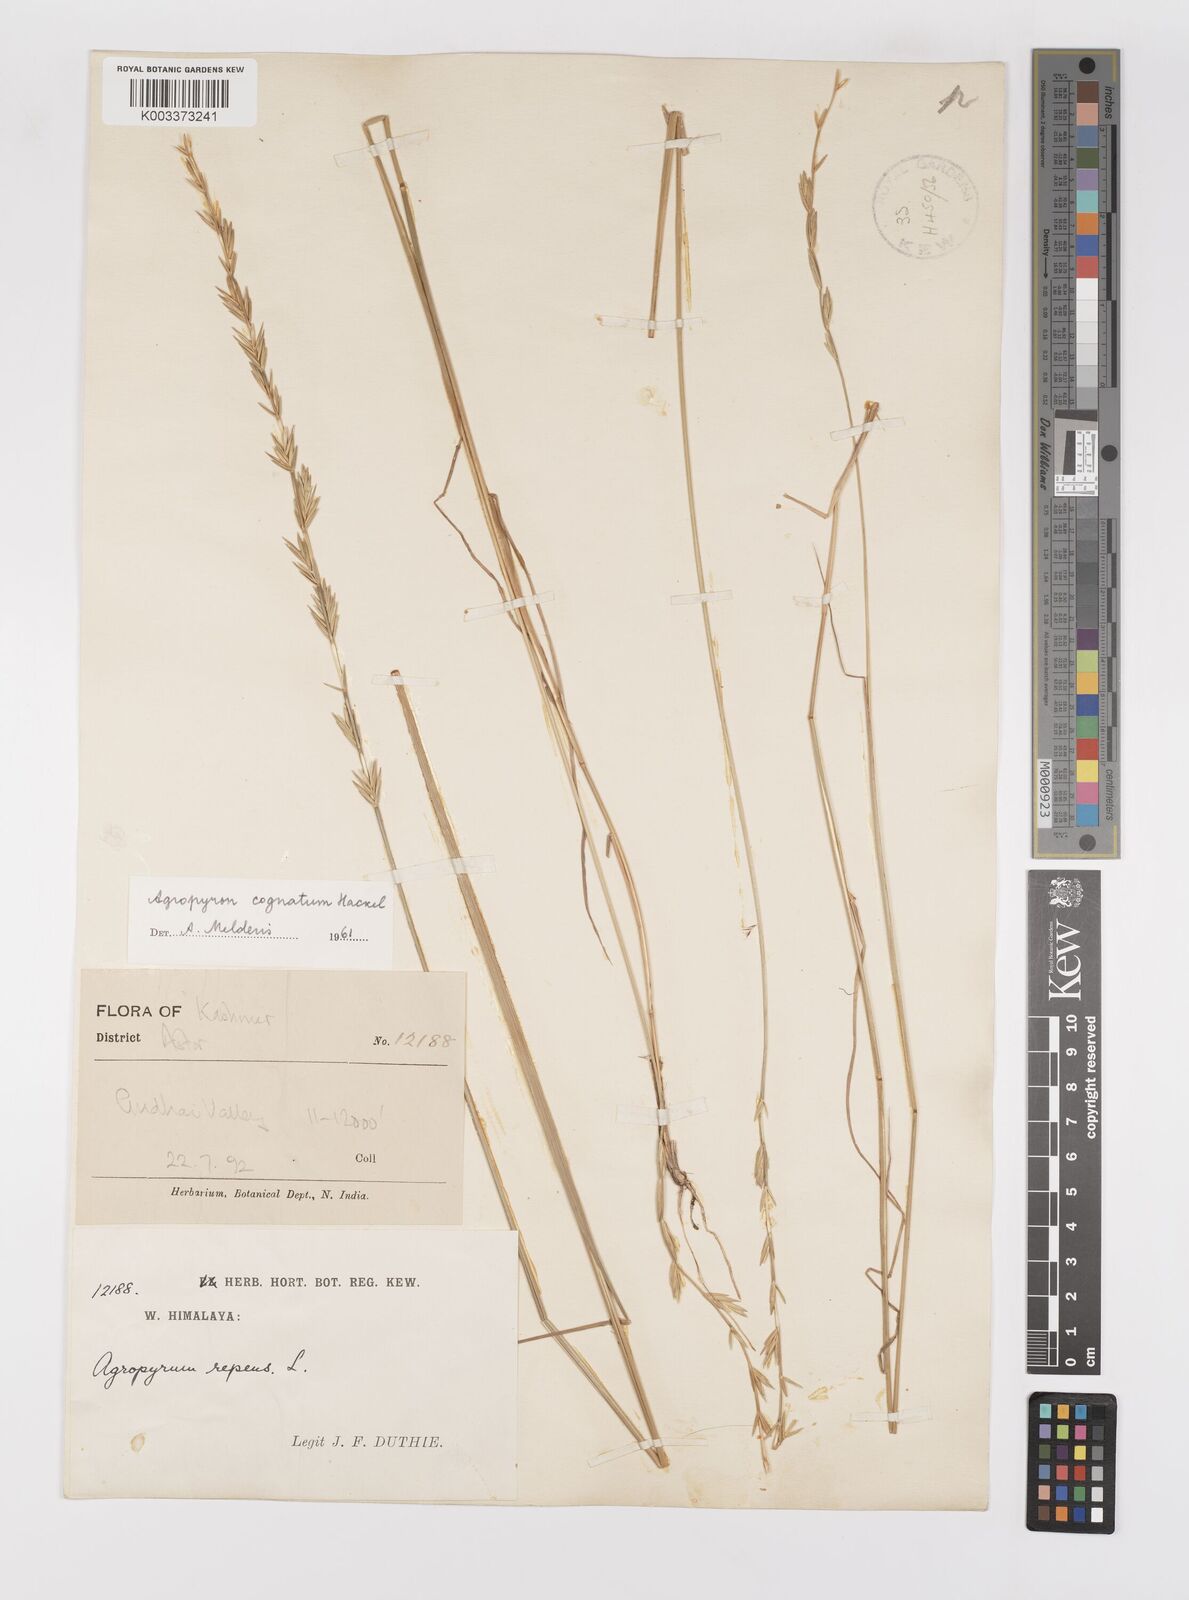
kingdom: Plantae
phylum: Tracheophyta
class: Liliopsida
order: Poales
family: Poaceae
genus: Pseudoroegneria
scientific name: Pseudoroegneria cognata
